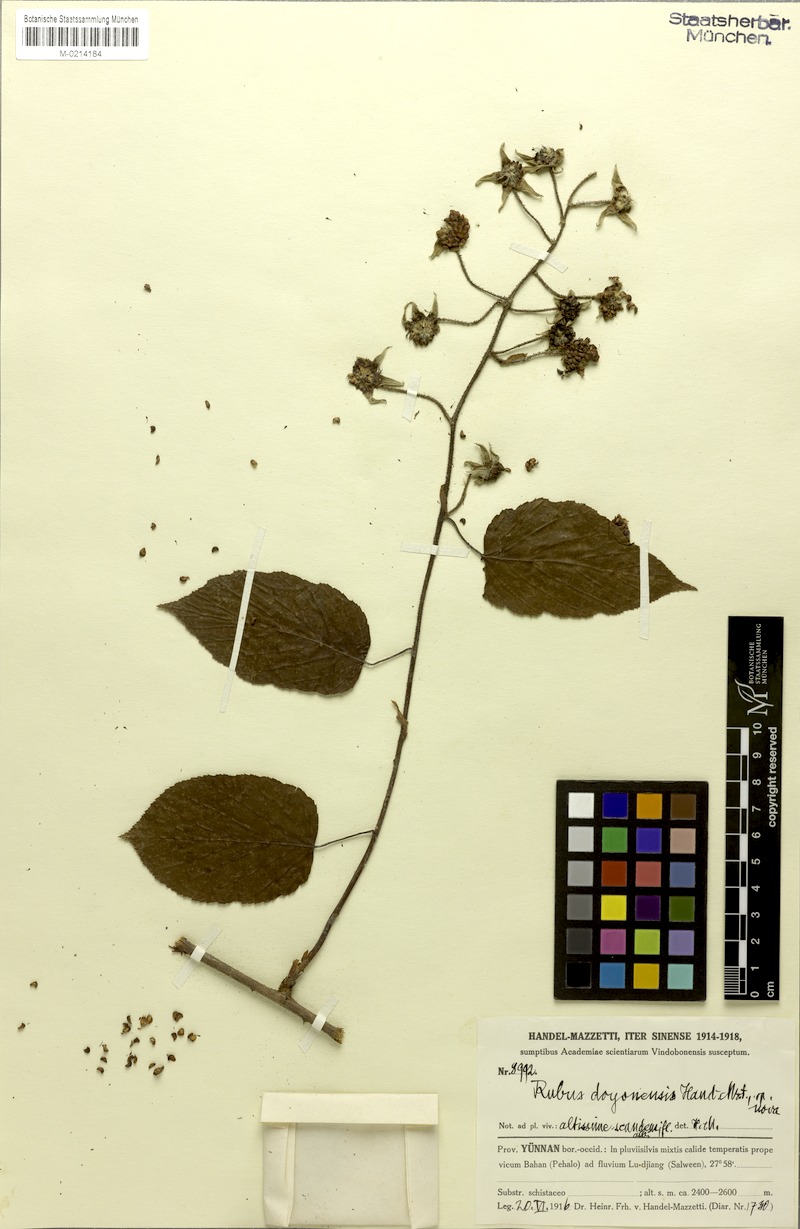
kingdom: Plantae
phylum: Tracheophyta
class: Magnoliopsida
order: Rosales
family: Rosaceae
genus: Rubus
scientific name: Rubus doyonensis
